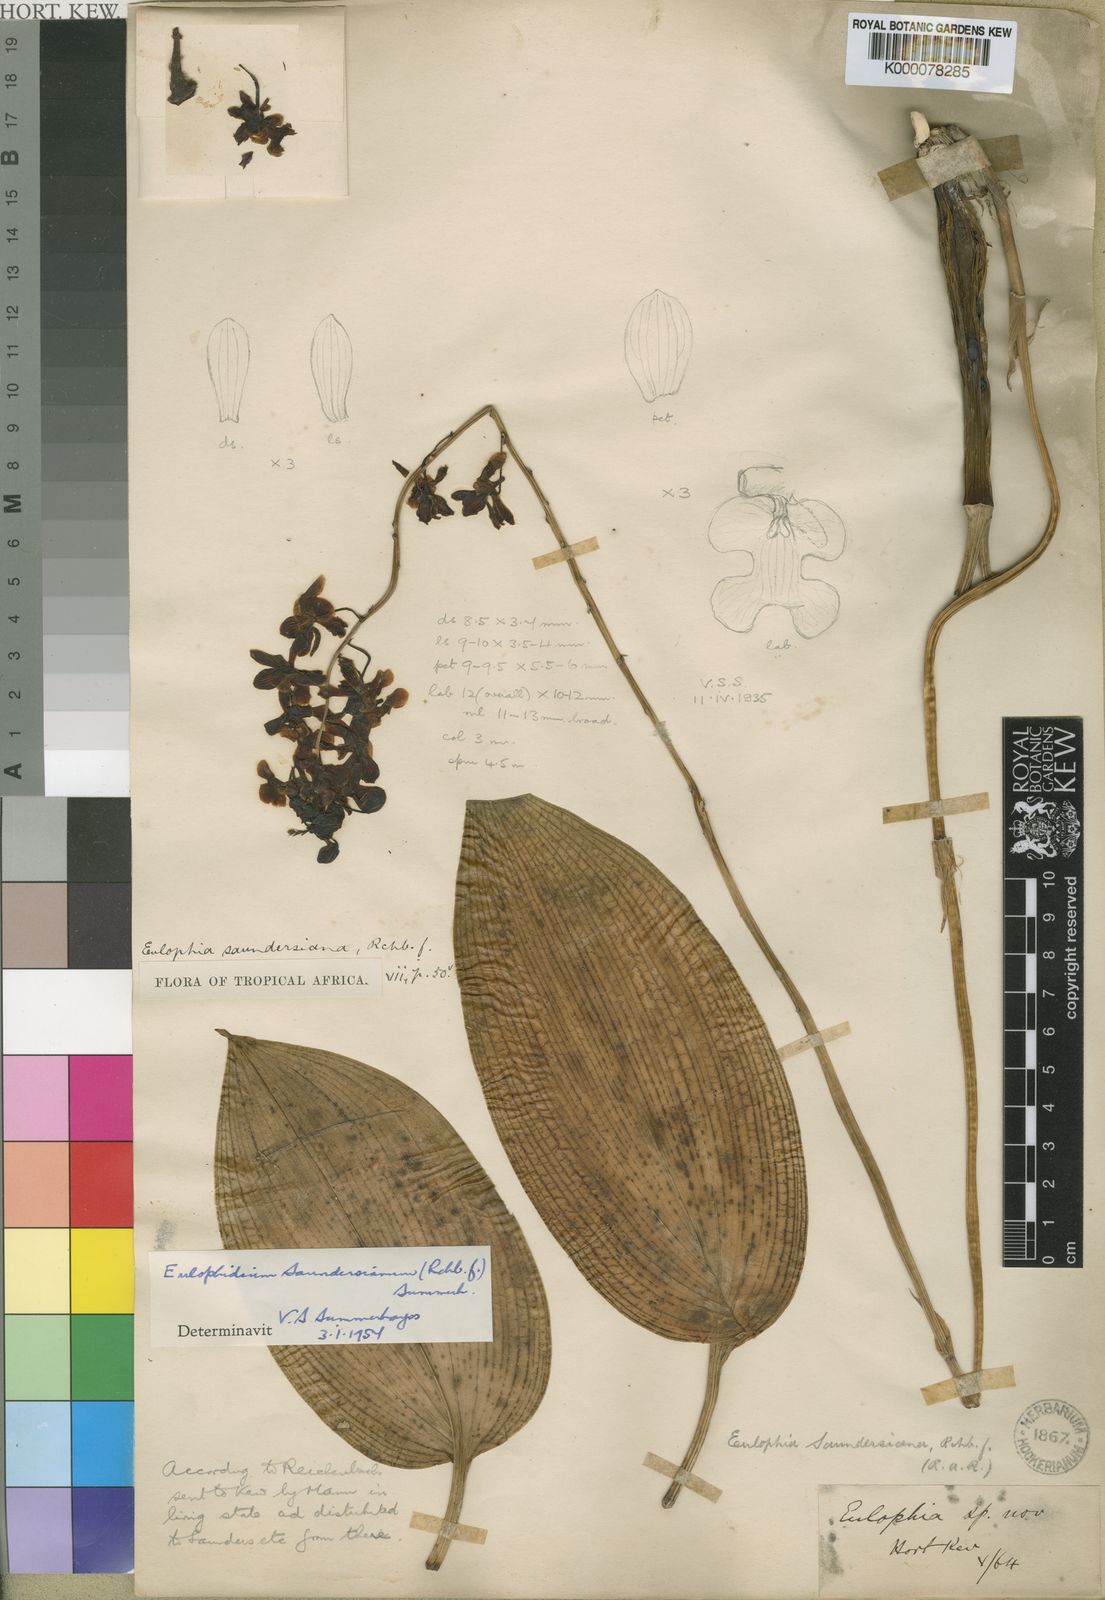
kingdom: Plantae
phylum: Tracheophyta
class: Liliopsida
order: Asparagales
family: Orchidaceae
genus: Eulophia
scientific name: Eulophia saundersiana
